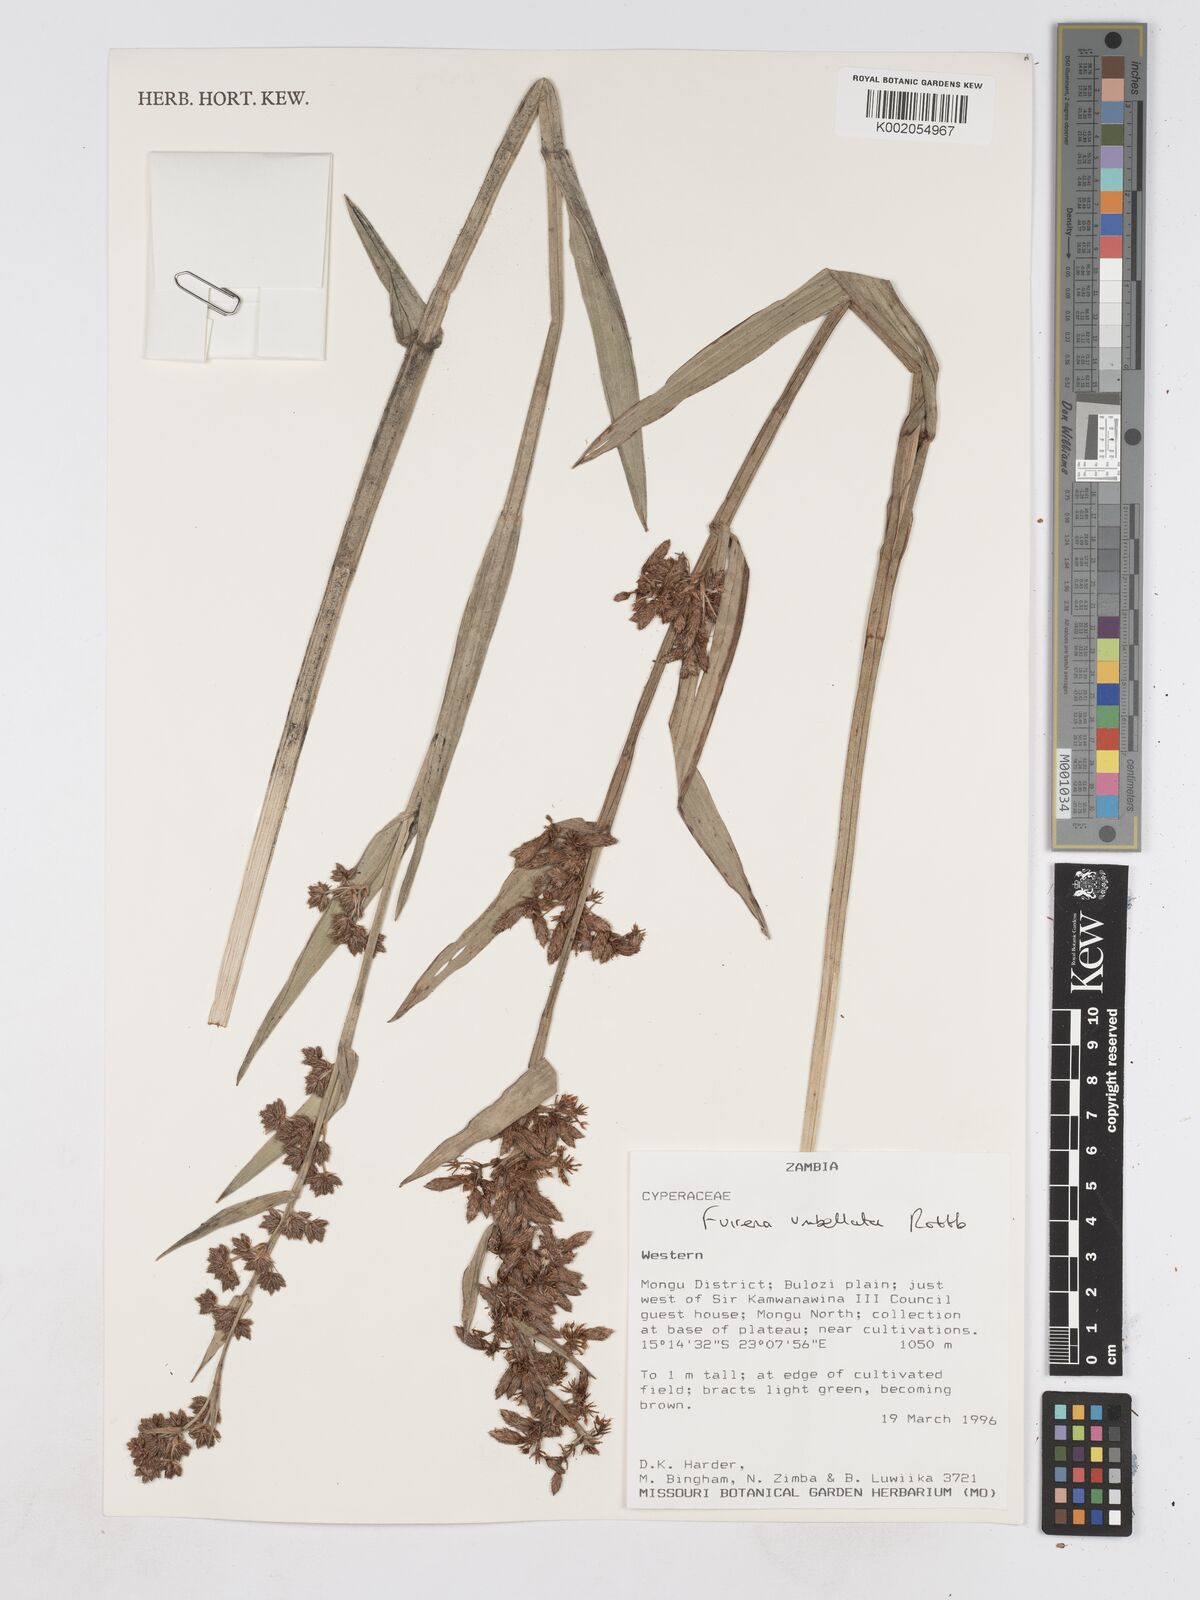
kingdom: Plantae
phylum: Tracheophyta
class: Liliopsida
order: Poales
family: Cyperaceae
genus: Fuirena
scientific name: Fuirena umbellata
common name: Yefen
